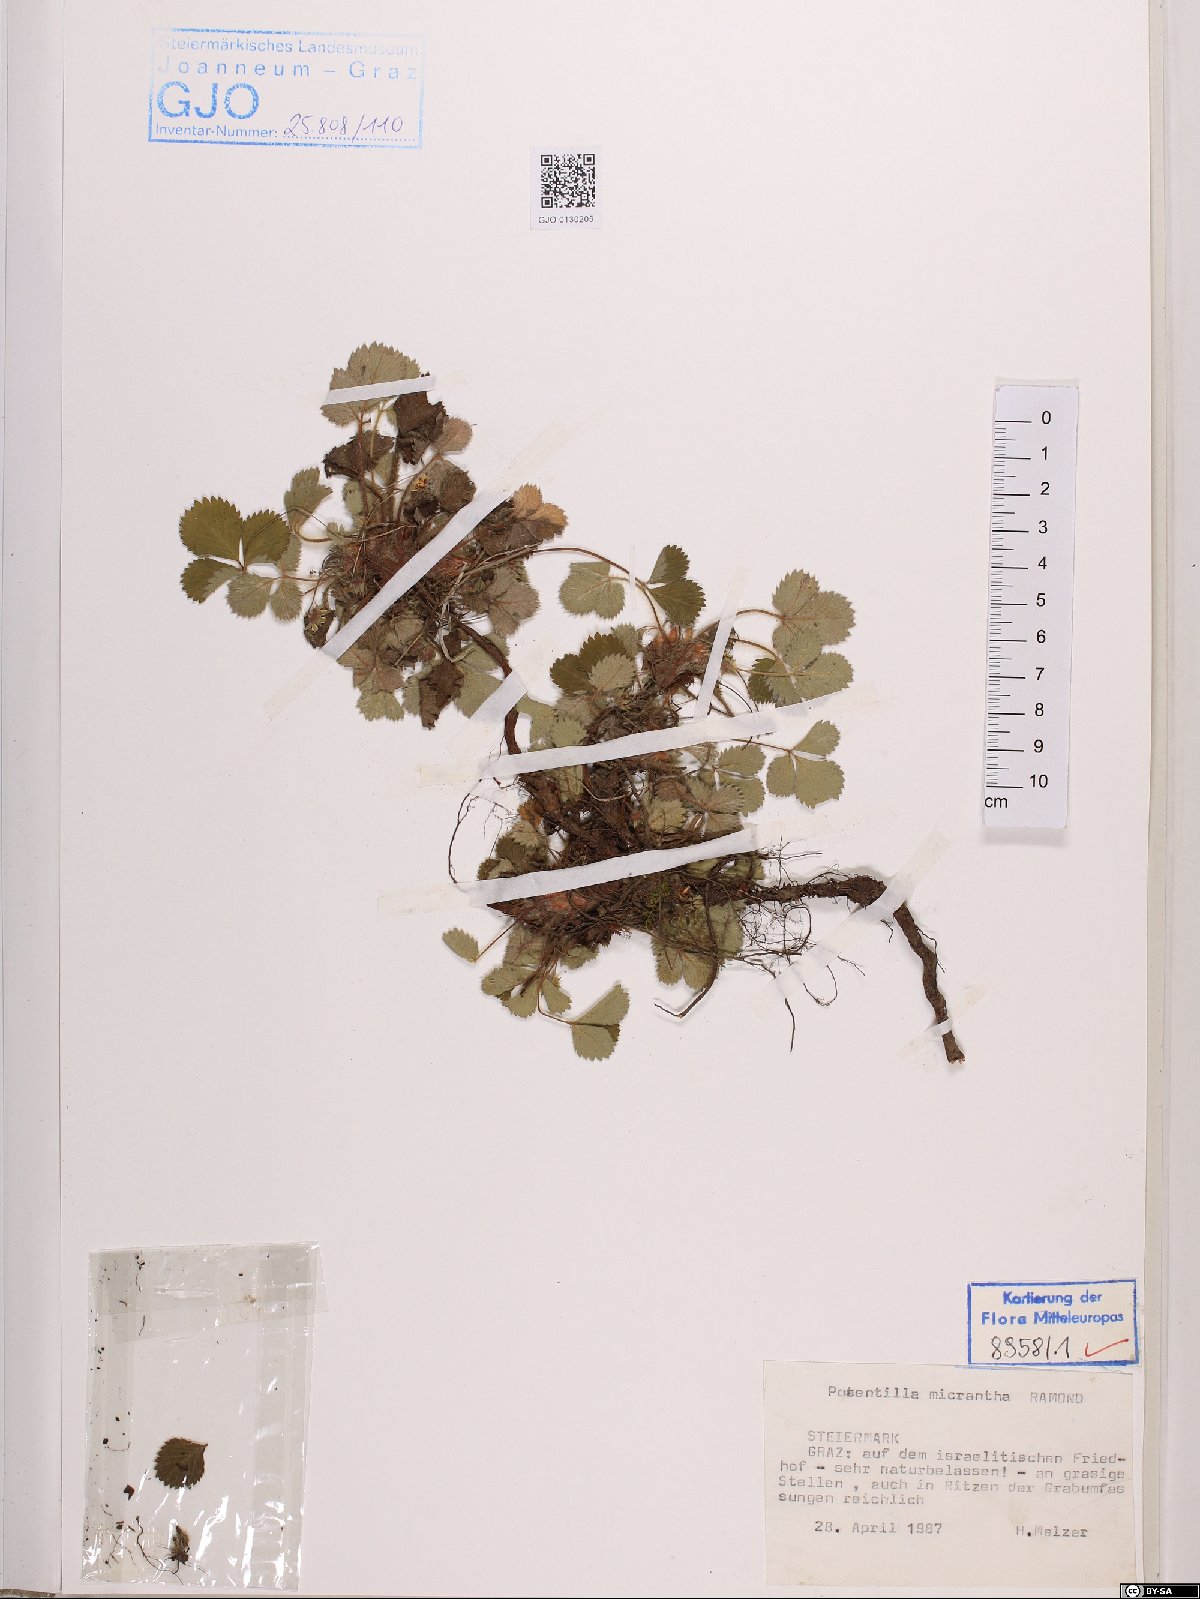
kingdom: Plantae
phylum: Tracheophyta
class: Magnoliopsida
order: Rosales
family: Rosaceae
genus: Potentilla
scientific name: Potentilla micrantha
